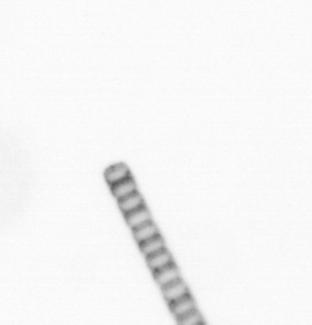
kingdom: Chromista
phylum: Ochrophyta
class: Bacillariophyceae
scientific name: Bacillariophyceae
